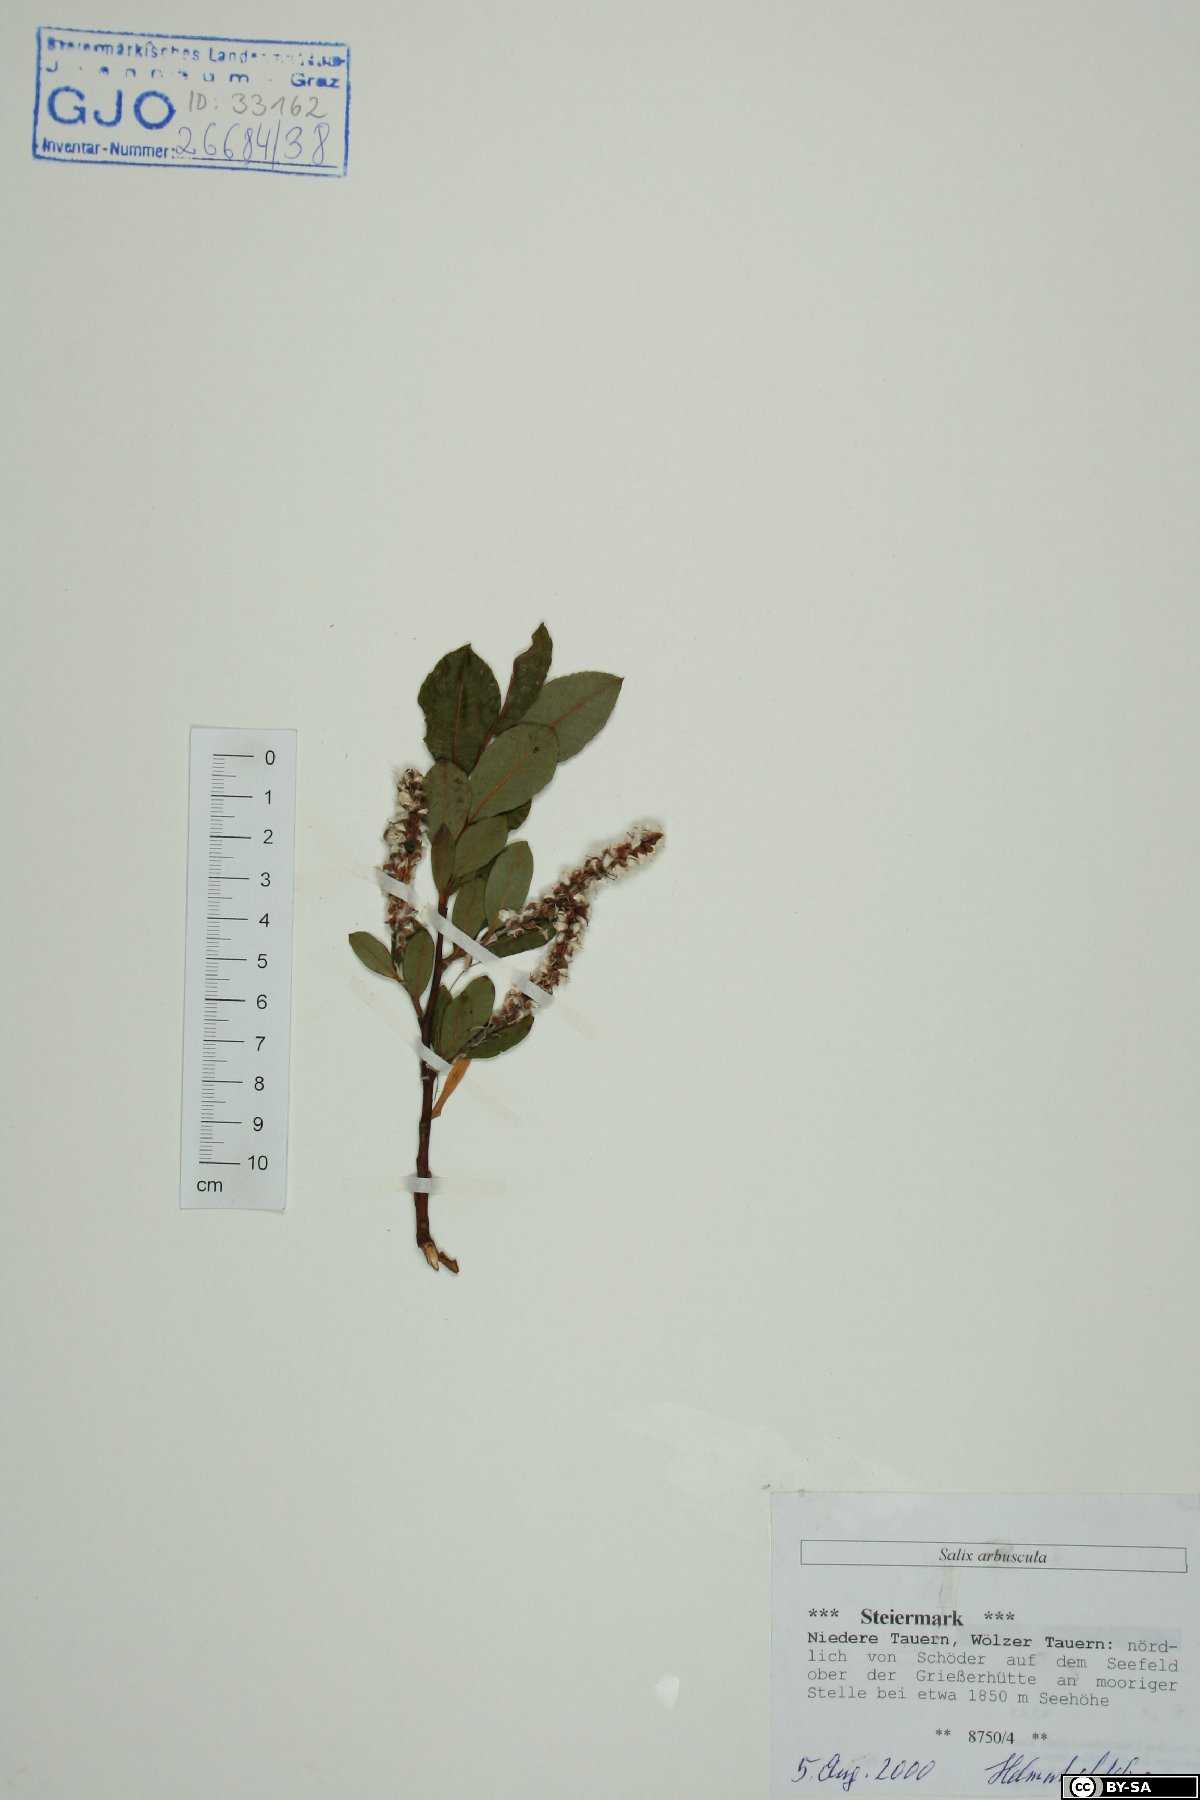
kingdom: Plantae
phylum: Tracheophyta
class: Magnoliopsida
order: Malpighiales
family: Salicaceae
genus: Salix
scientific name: Salix arbuscula
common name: Mountain willow
